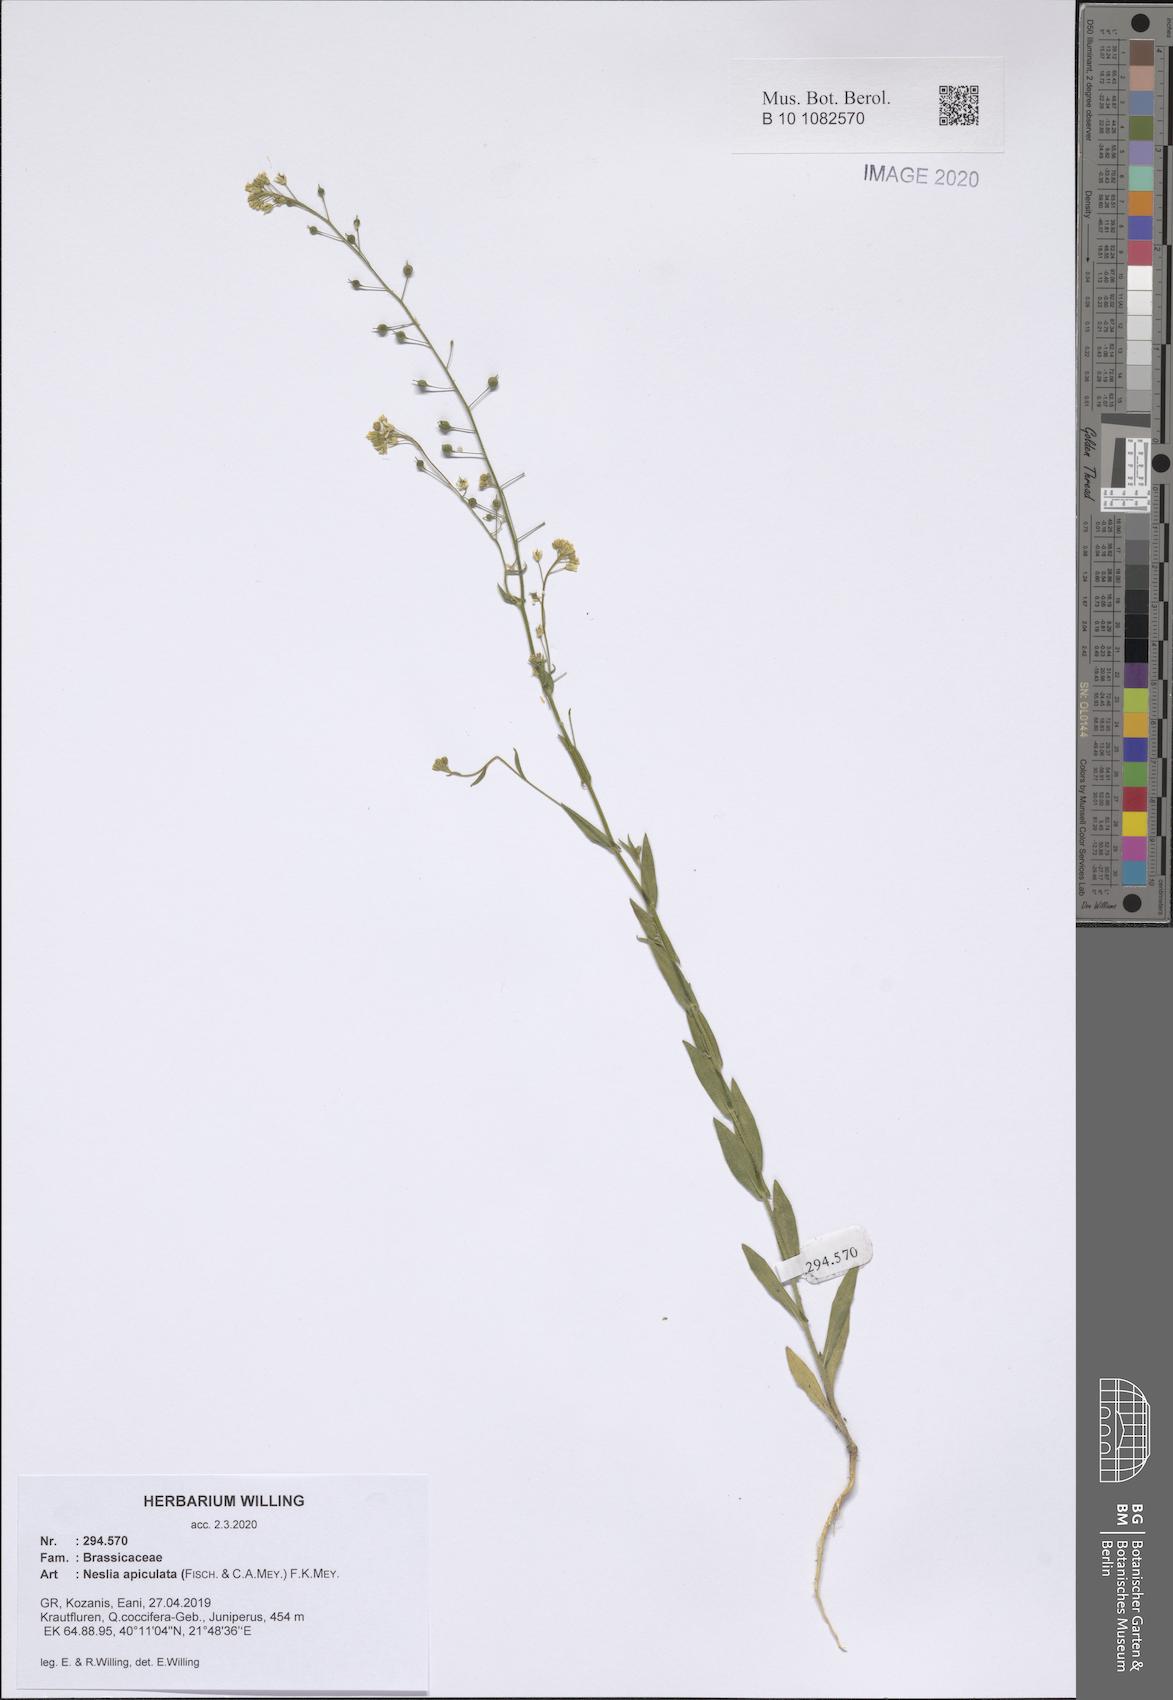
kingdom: Plantae
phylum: Tracheophyta
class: Magnoliopsida
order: Brassicales
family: Brassicaceae
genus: Neslia
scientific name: Neslia paniculata
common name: Ball mustard
